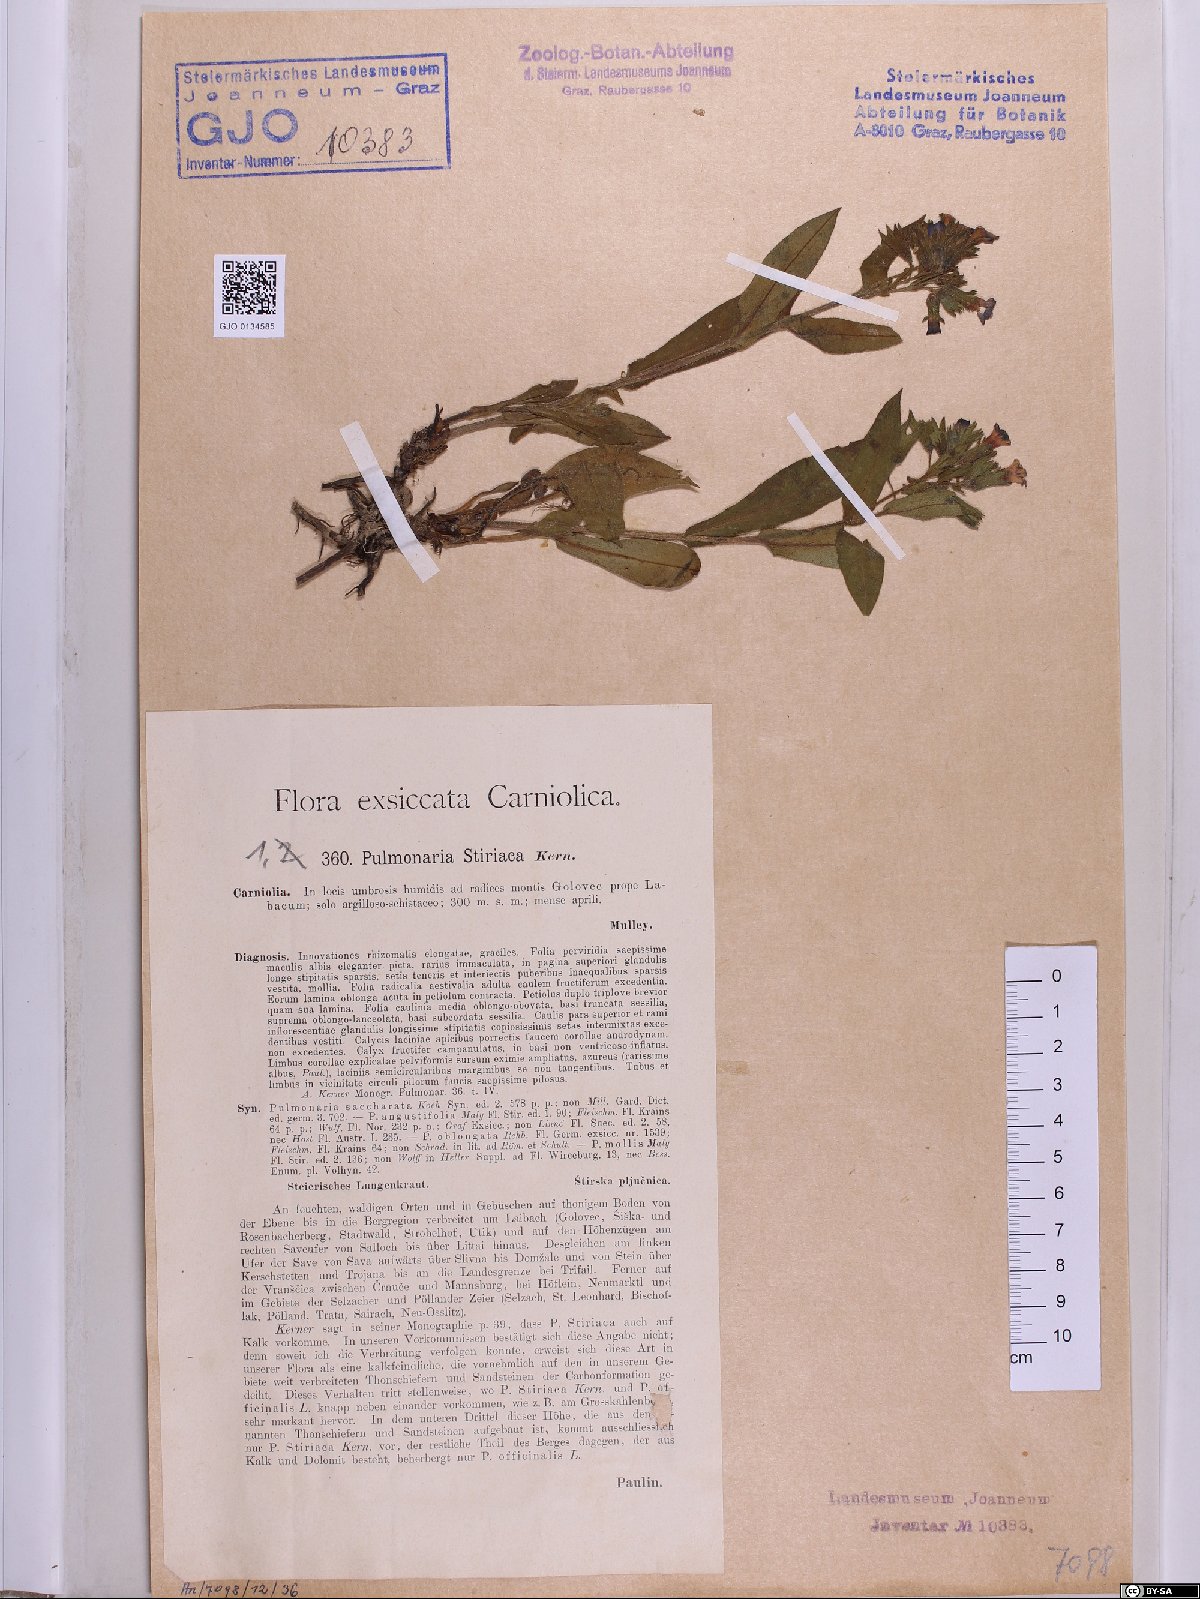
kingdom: Plantae
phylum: Tracheophyta
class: Magnoliopsida
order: Boraginales
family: Boraginaceae
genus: Pulmonaria
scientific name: Pulmonaria stiriaca
